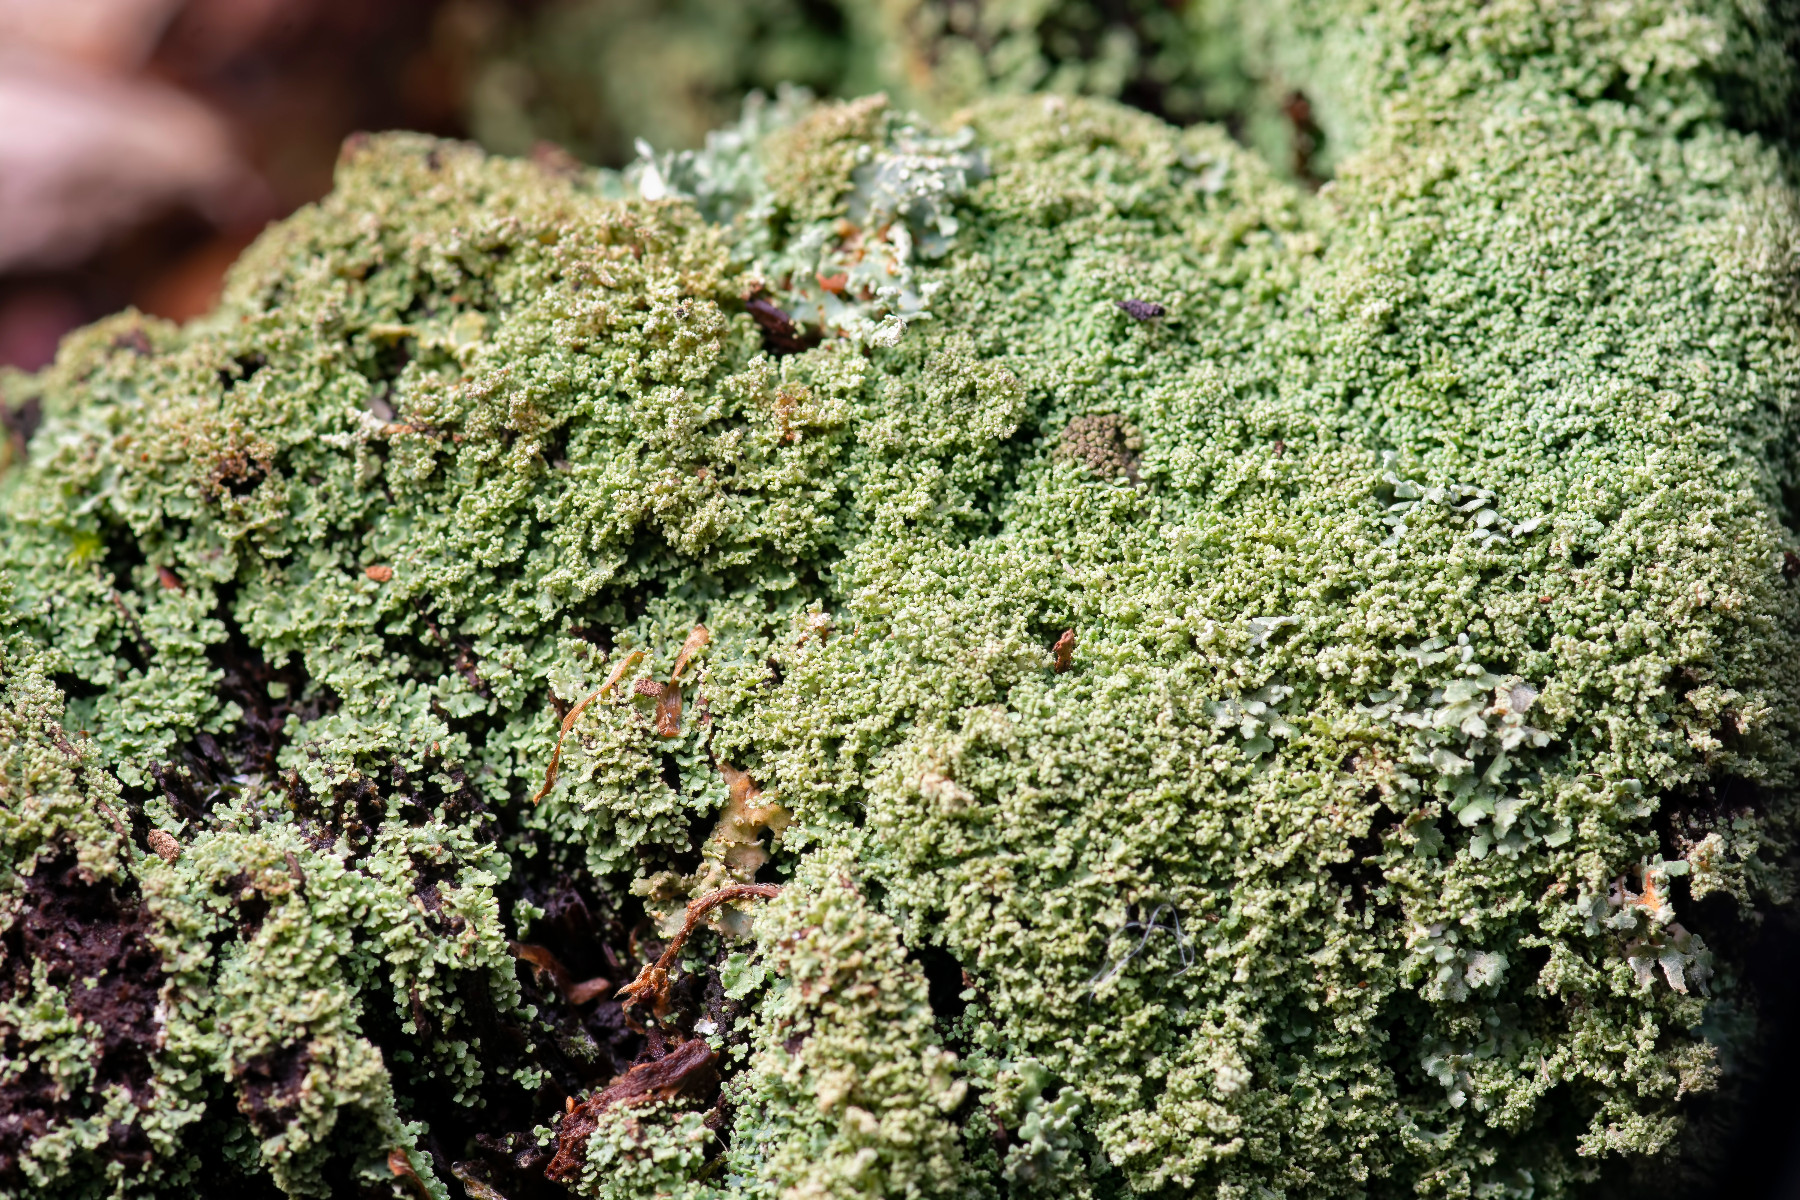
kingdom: Fungi
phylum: Ascomycota
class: Lecanoromycetes
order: Lecanorales
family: Cladoniaceae
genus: Cladonia
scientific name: Cladonia parasitica
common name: dværg-bægerlav
